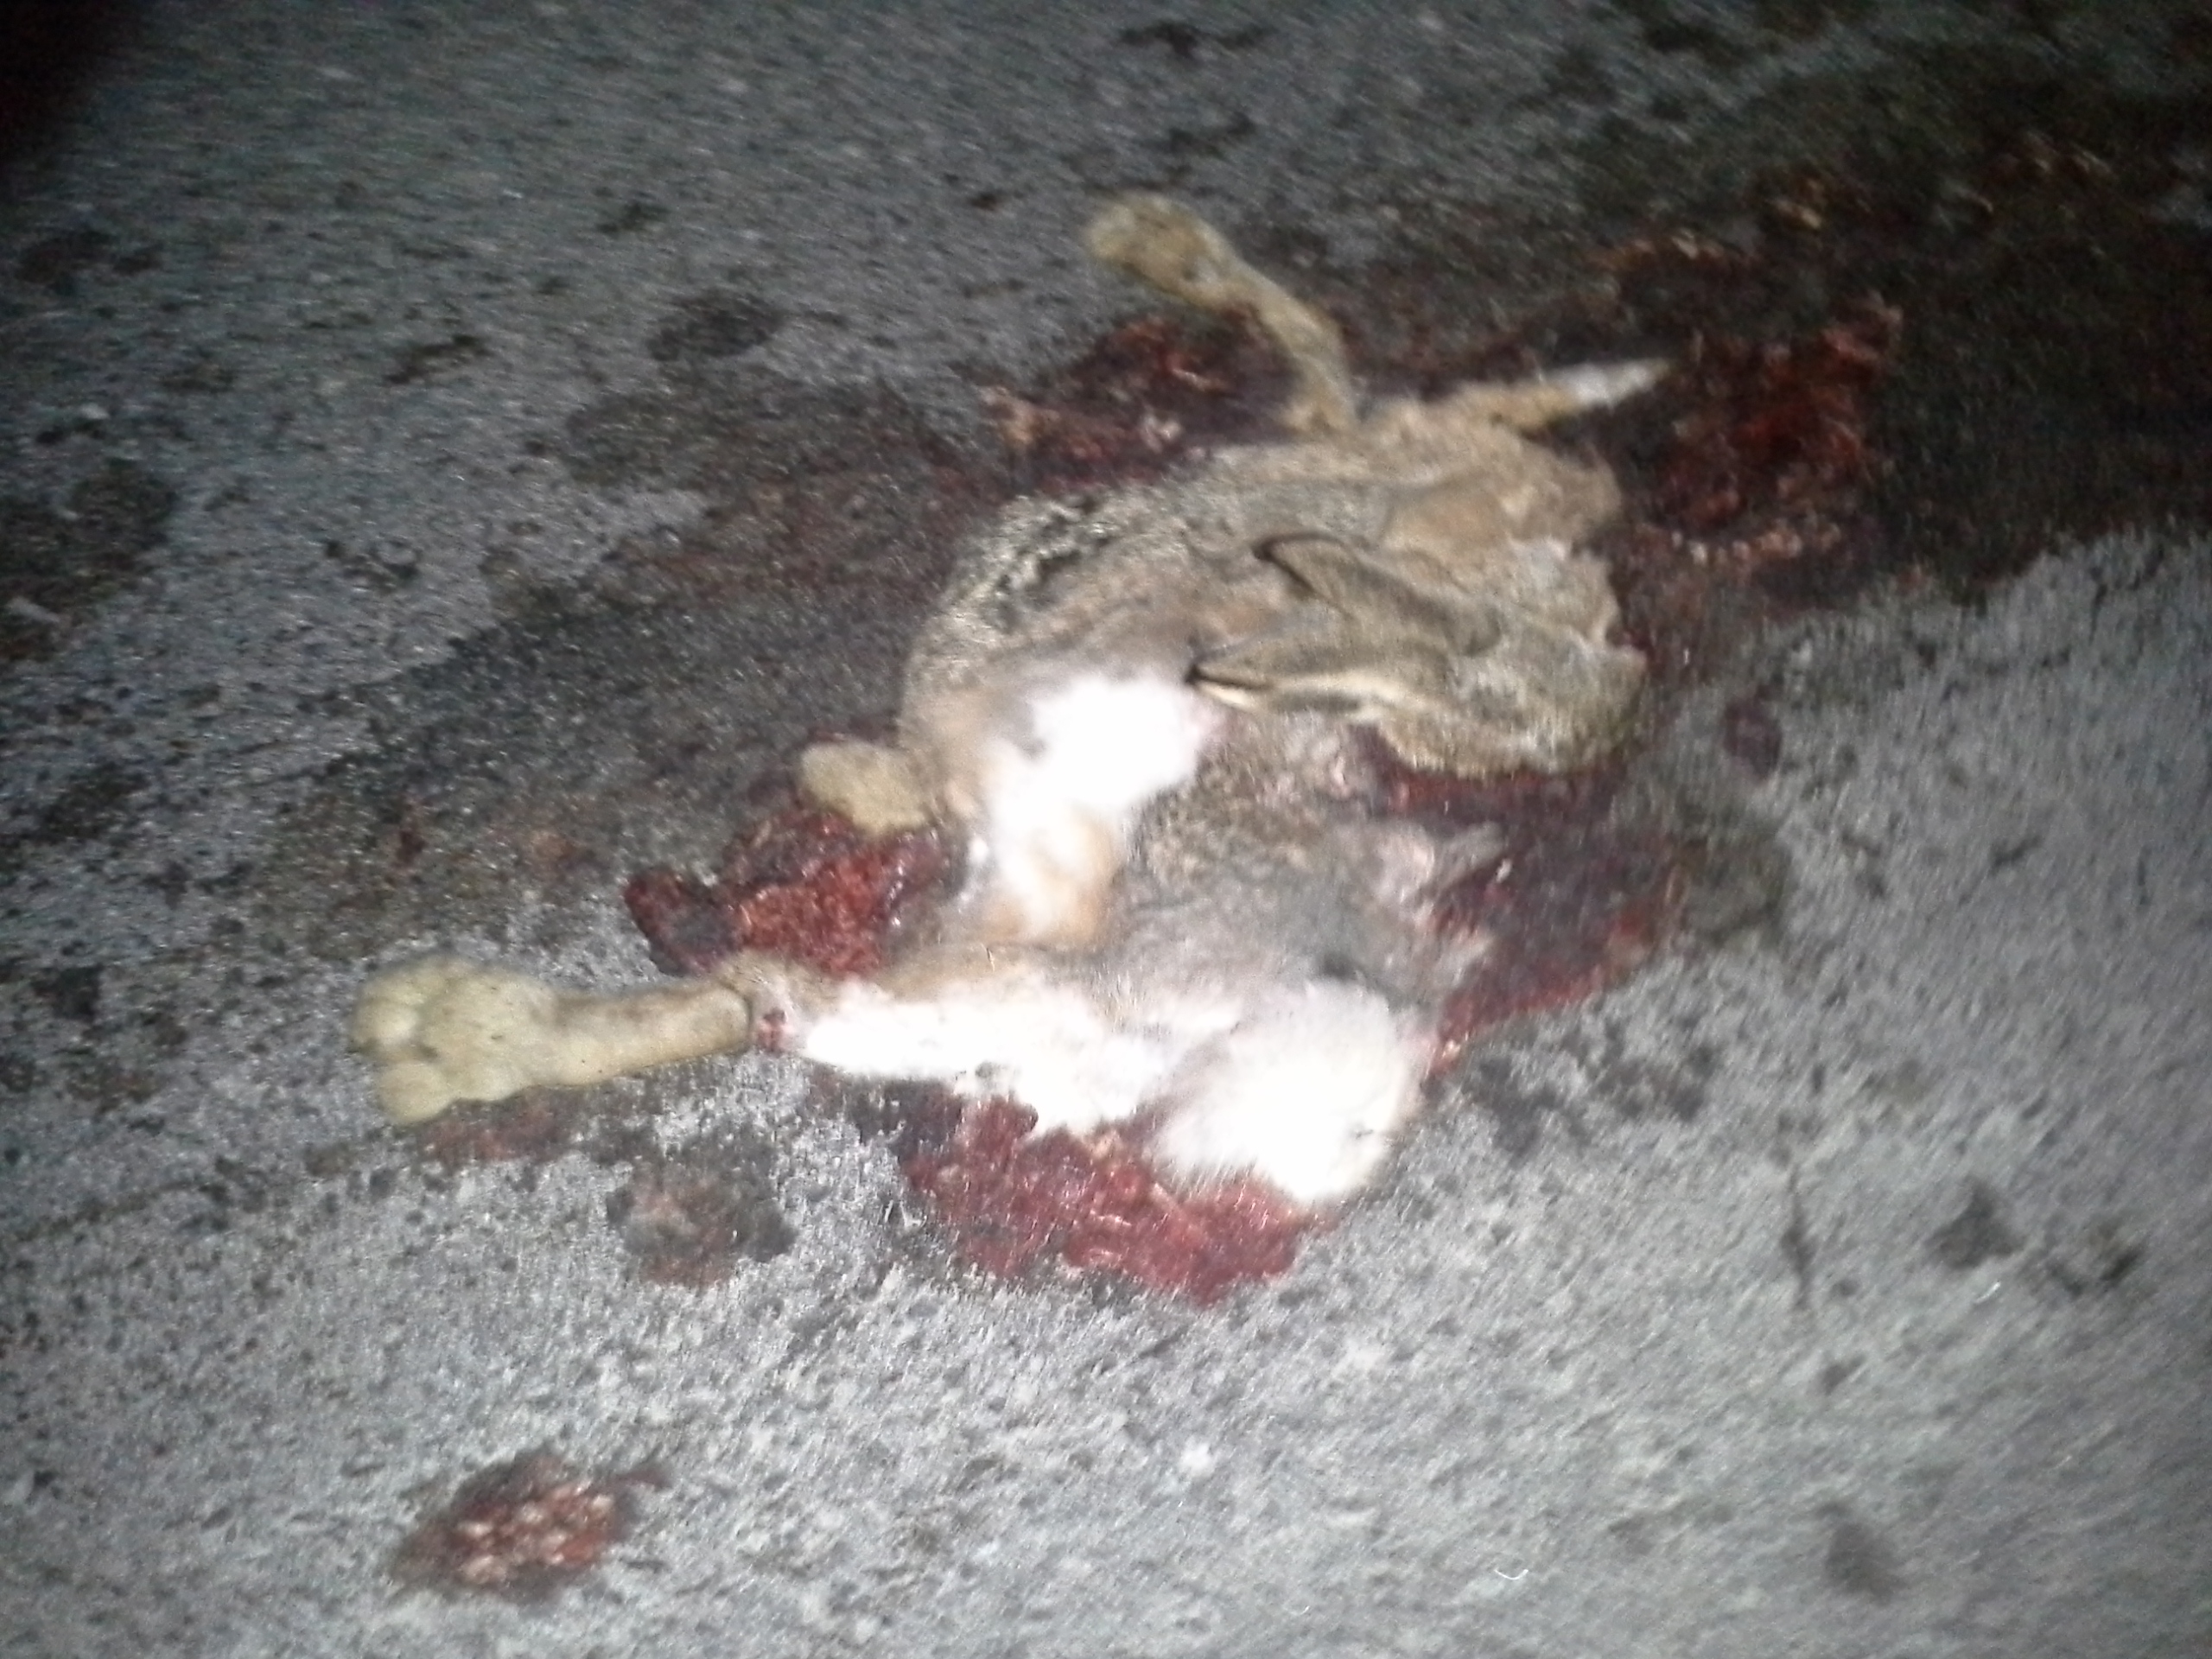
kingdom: Animalia
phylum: Chordata
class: Mammalia
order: Lagomorpha
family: Leporidae
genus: Lepus
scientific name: Lepus europaeus
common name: European hare
